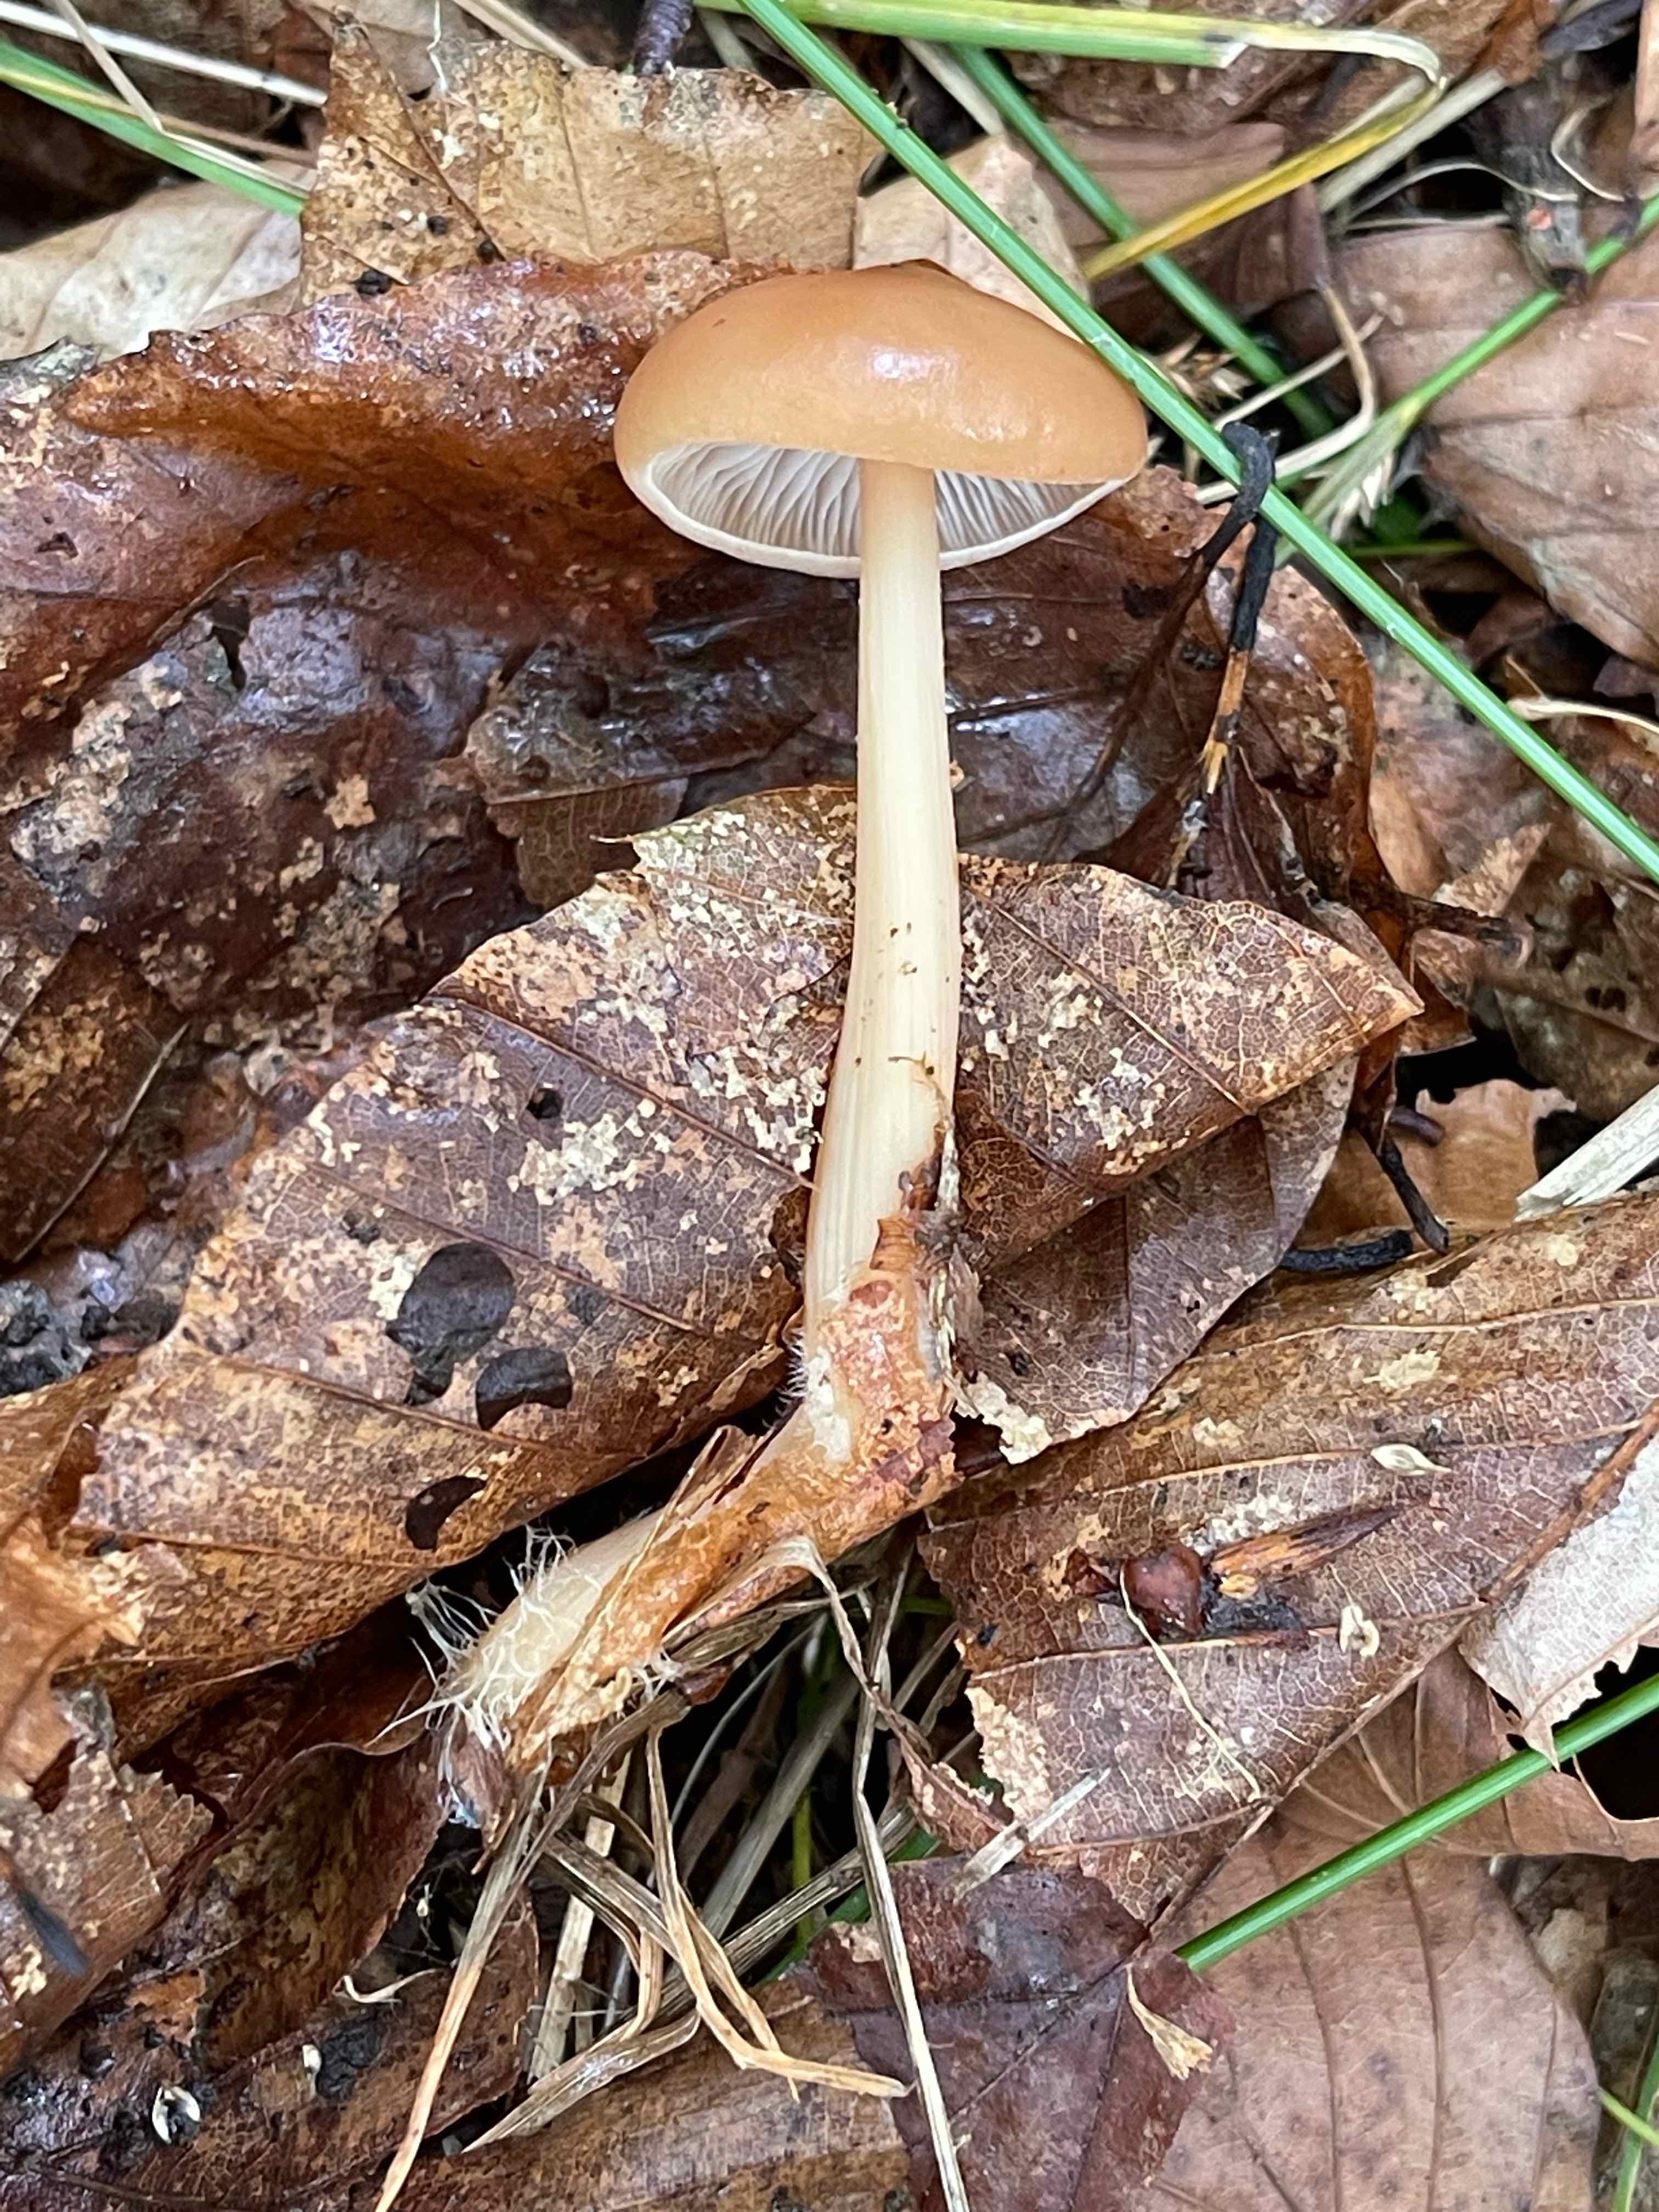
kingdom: Fungi
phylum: Basidiomycota
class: Agaricomycetes
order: Agaricales
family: Omphalotaceae
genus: Gymnopus
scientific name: Gymnopus dryophilus
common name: løv-fladhat
